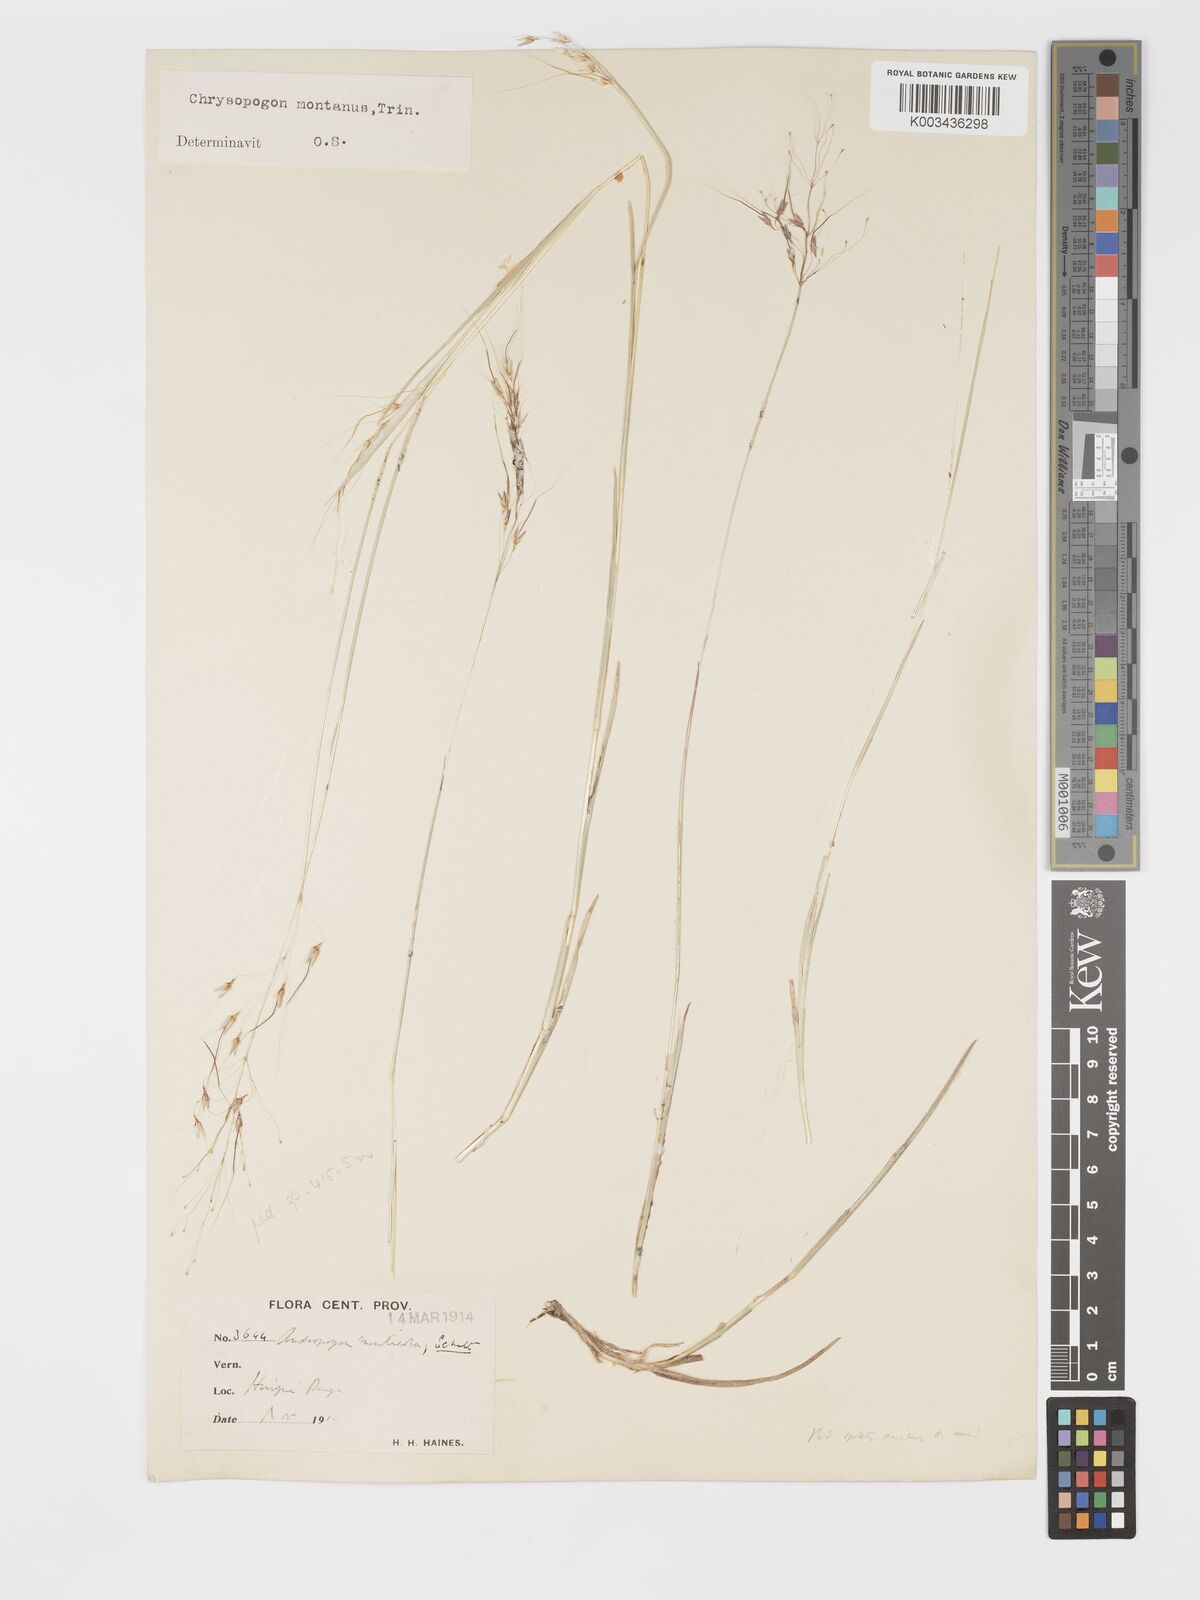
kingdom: Plantae
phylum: Tracheophyta
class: Liliopsida
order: Poales
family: Poaceae
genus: Chrysopogon
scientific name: Chrysopogon fulvus
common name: Red false beardgrass
